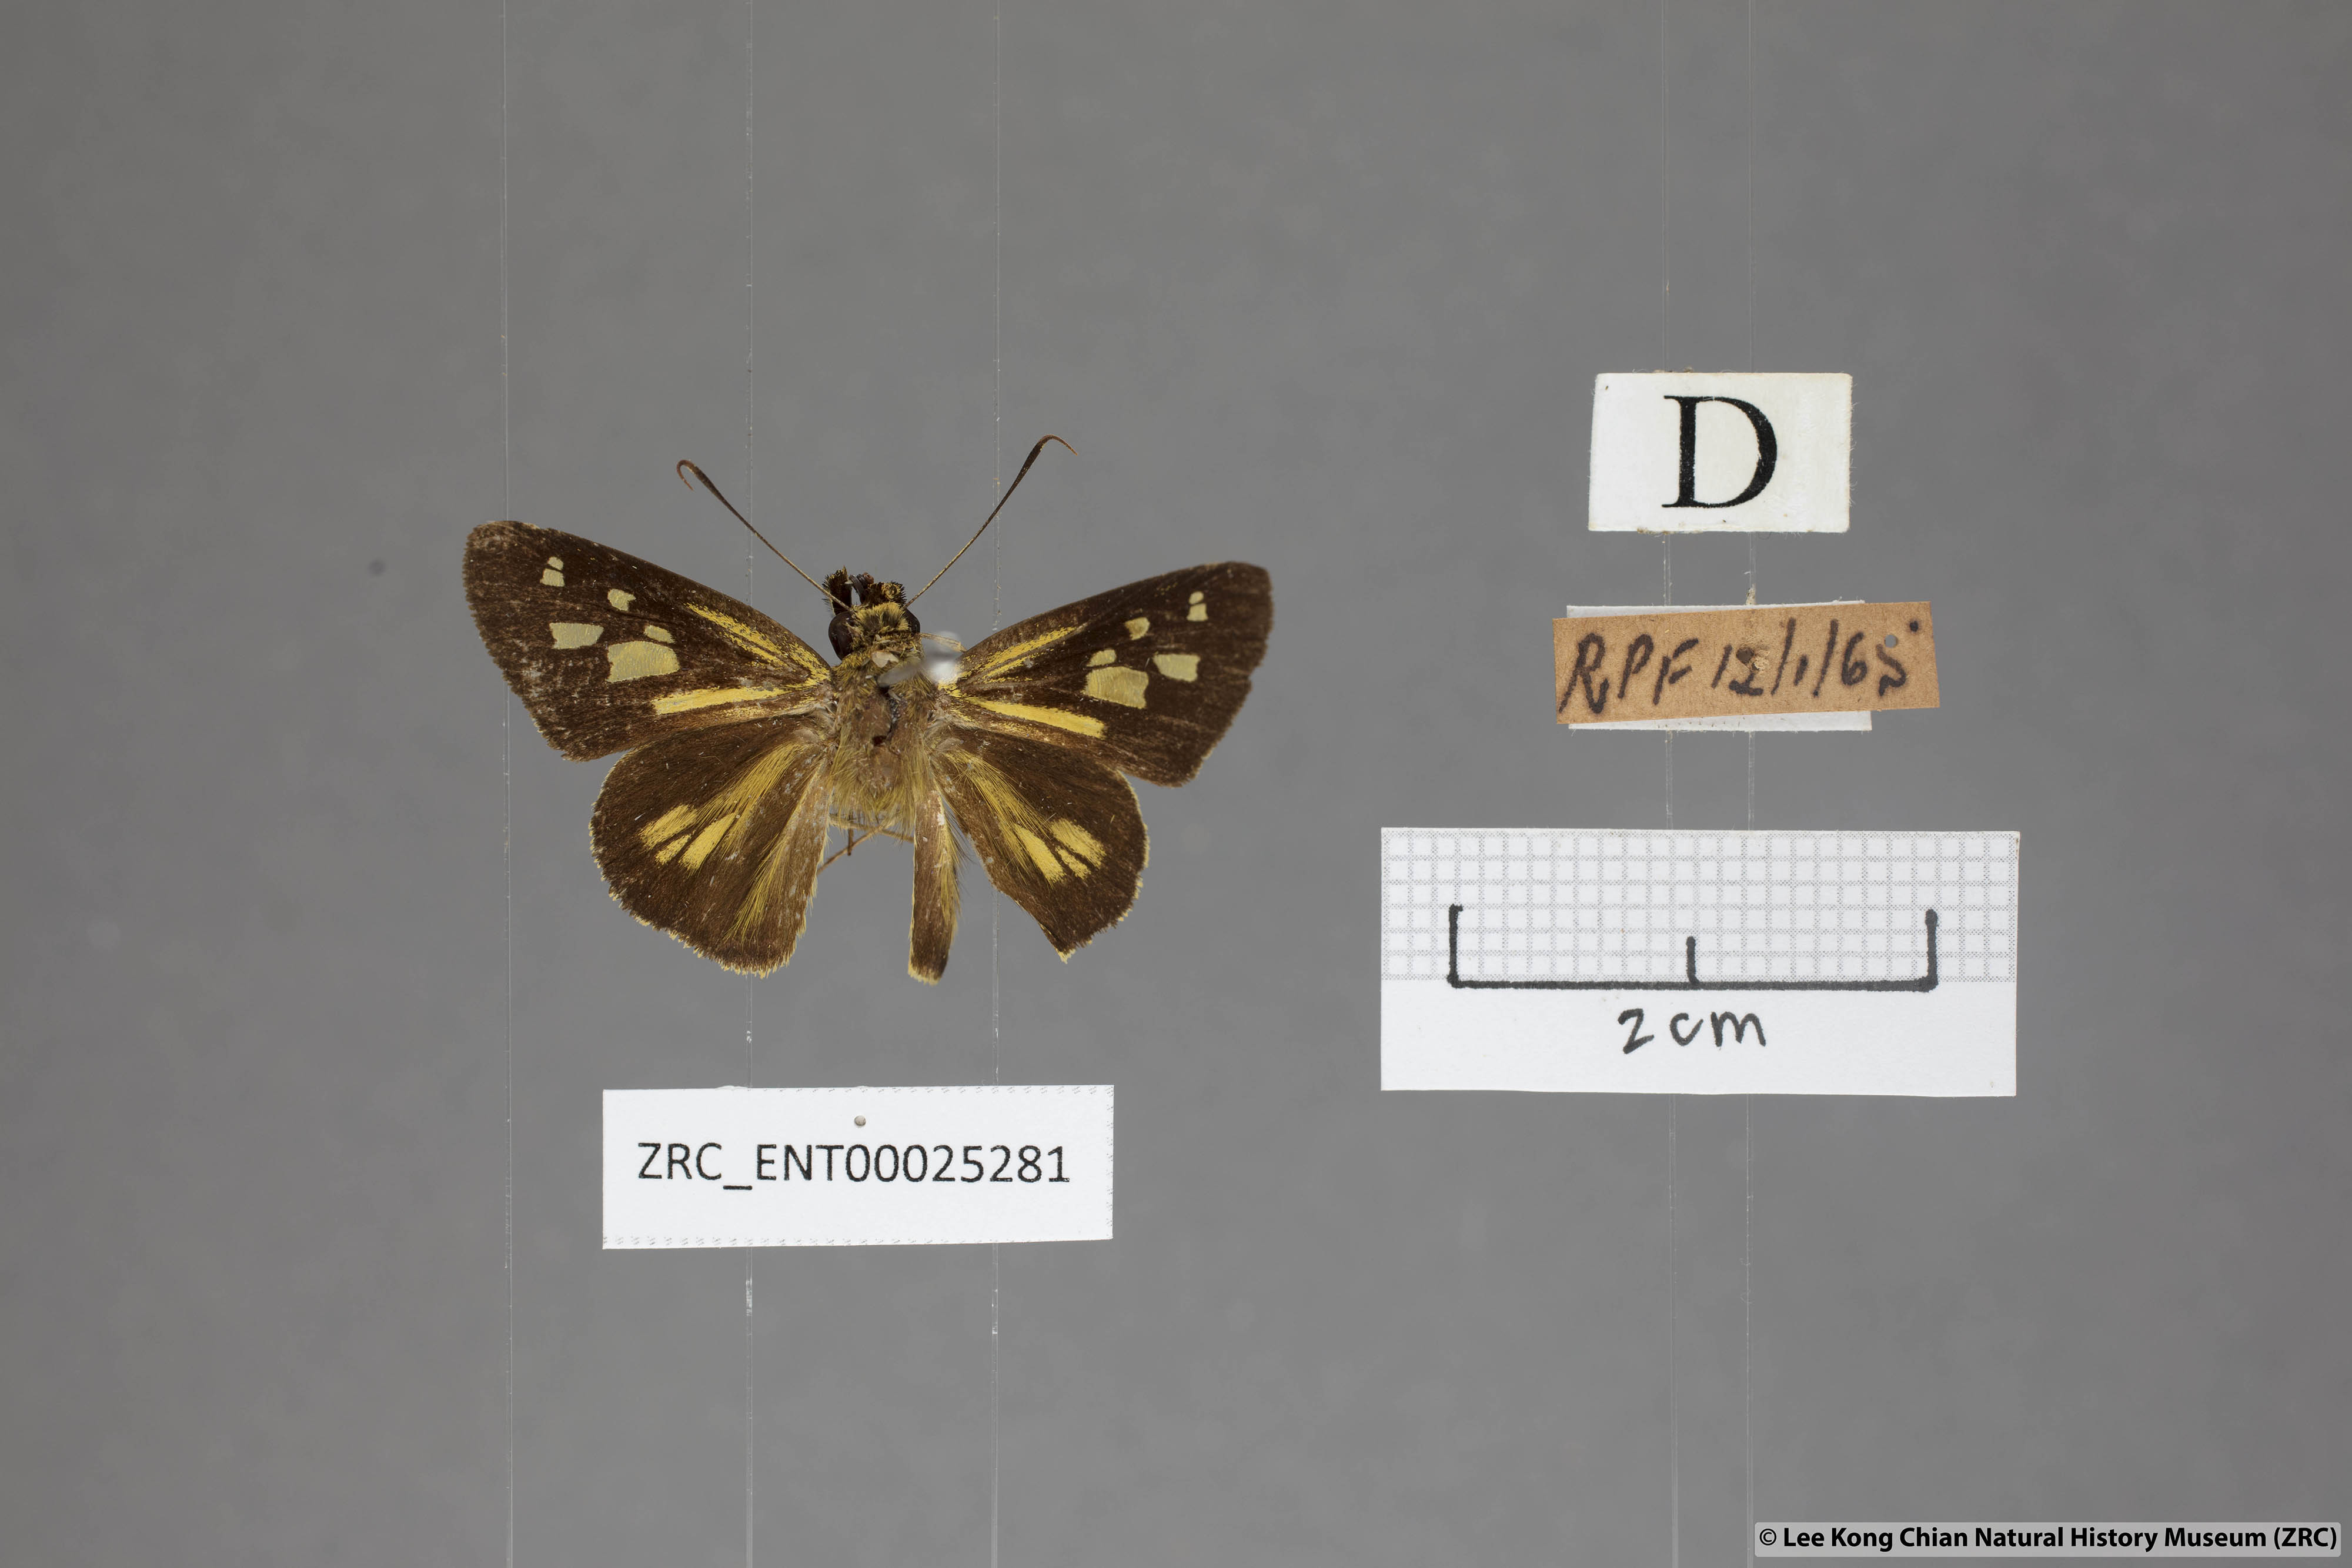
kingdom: Animalia
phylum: Arthropoda
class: Insecta
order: Lepidoptera
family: Hesperiidae
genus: Plastingia
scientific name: Plastingia pellonia
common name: Yellow chequered lancer
